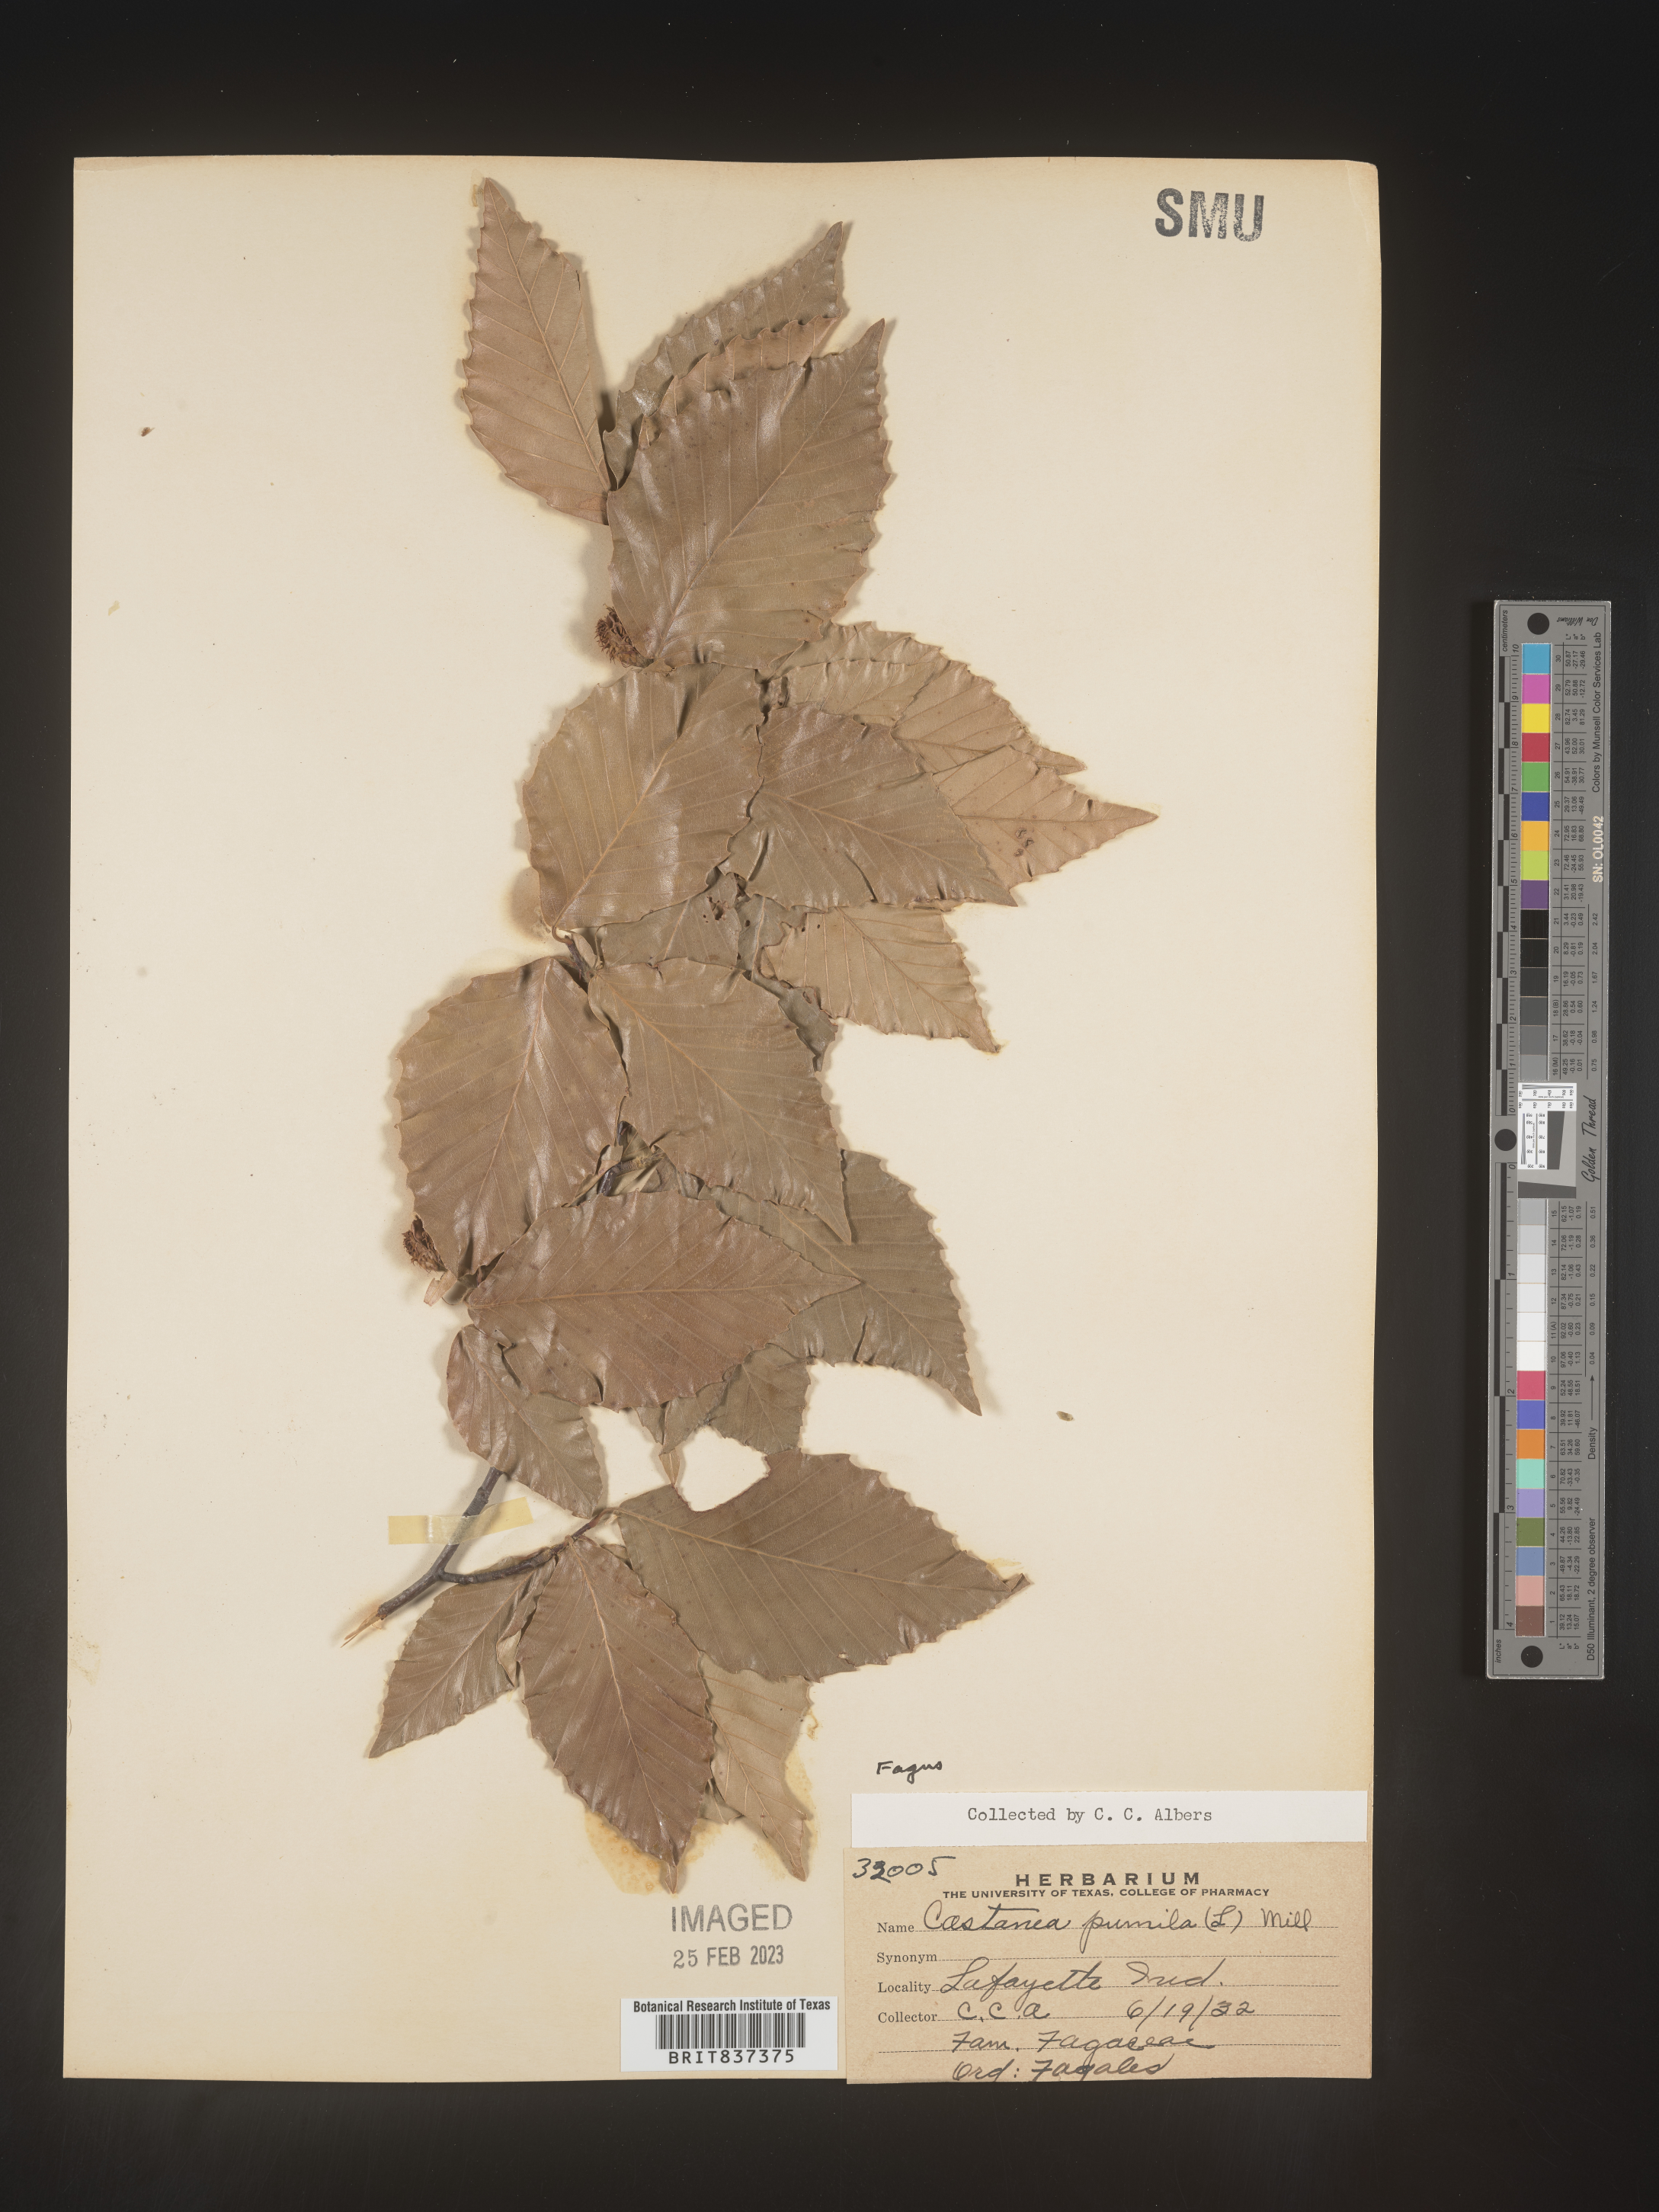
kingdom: Plantae
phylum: Tracheophyta
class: Magnoliopsida
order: Fagales
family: Fagaceae
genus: Fagus
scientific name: Fagus grandifolia
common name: American beech
